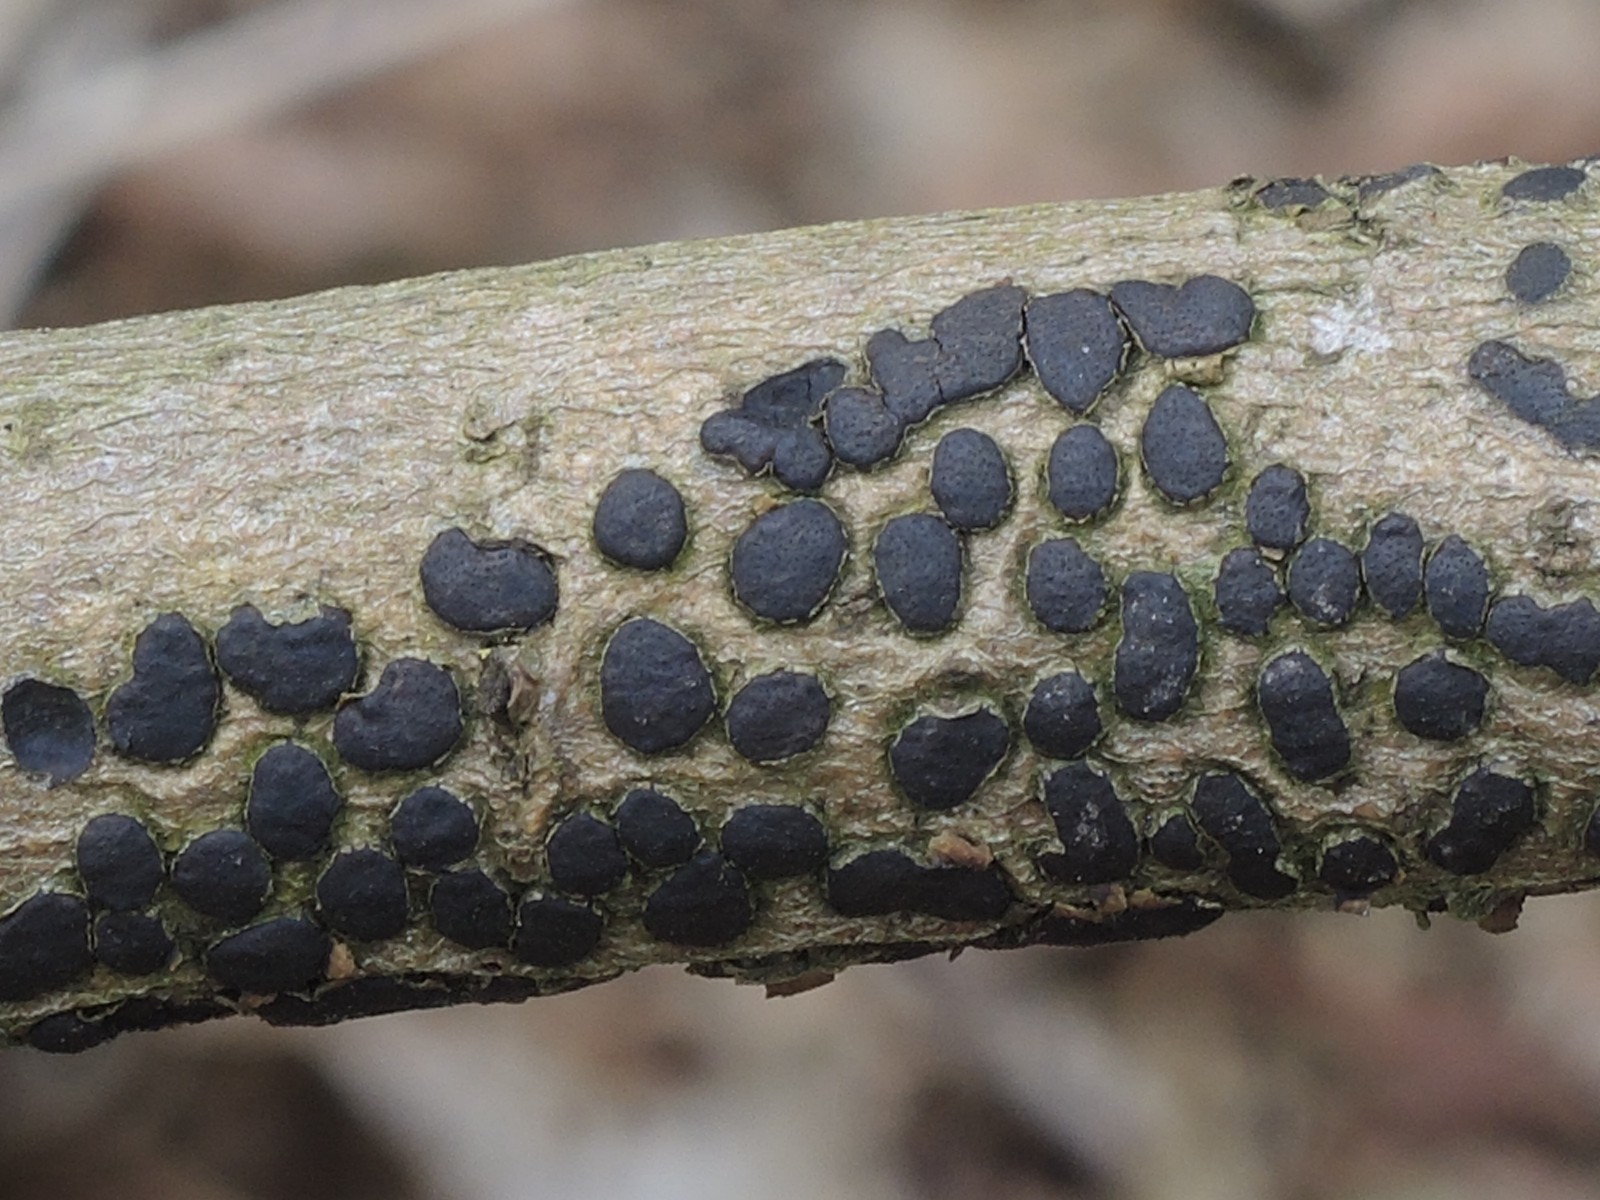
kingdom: Fungi
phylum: Ascomycota
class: Sordariomycetes
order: Xylariales
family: Diatrypaceae
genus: Diatrype
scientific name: Diatrype bullata
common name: pile-kulskorpe
